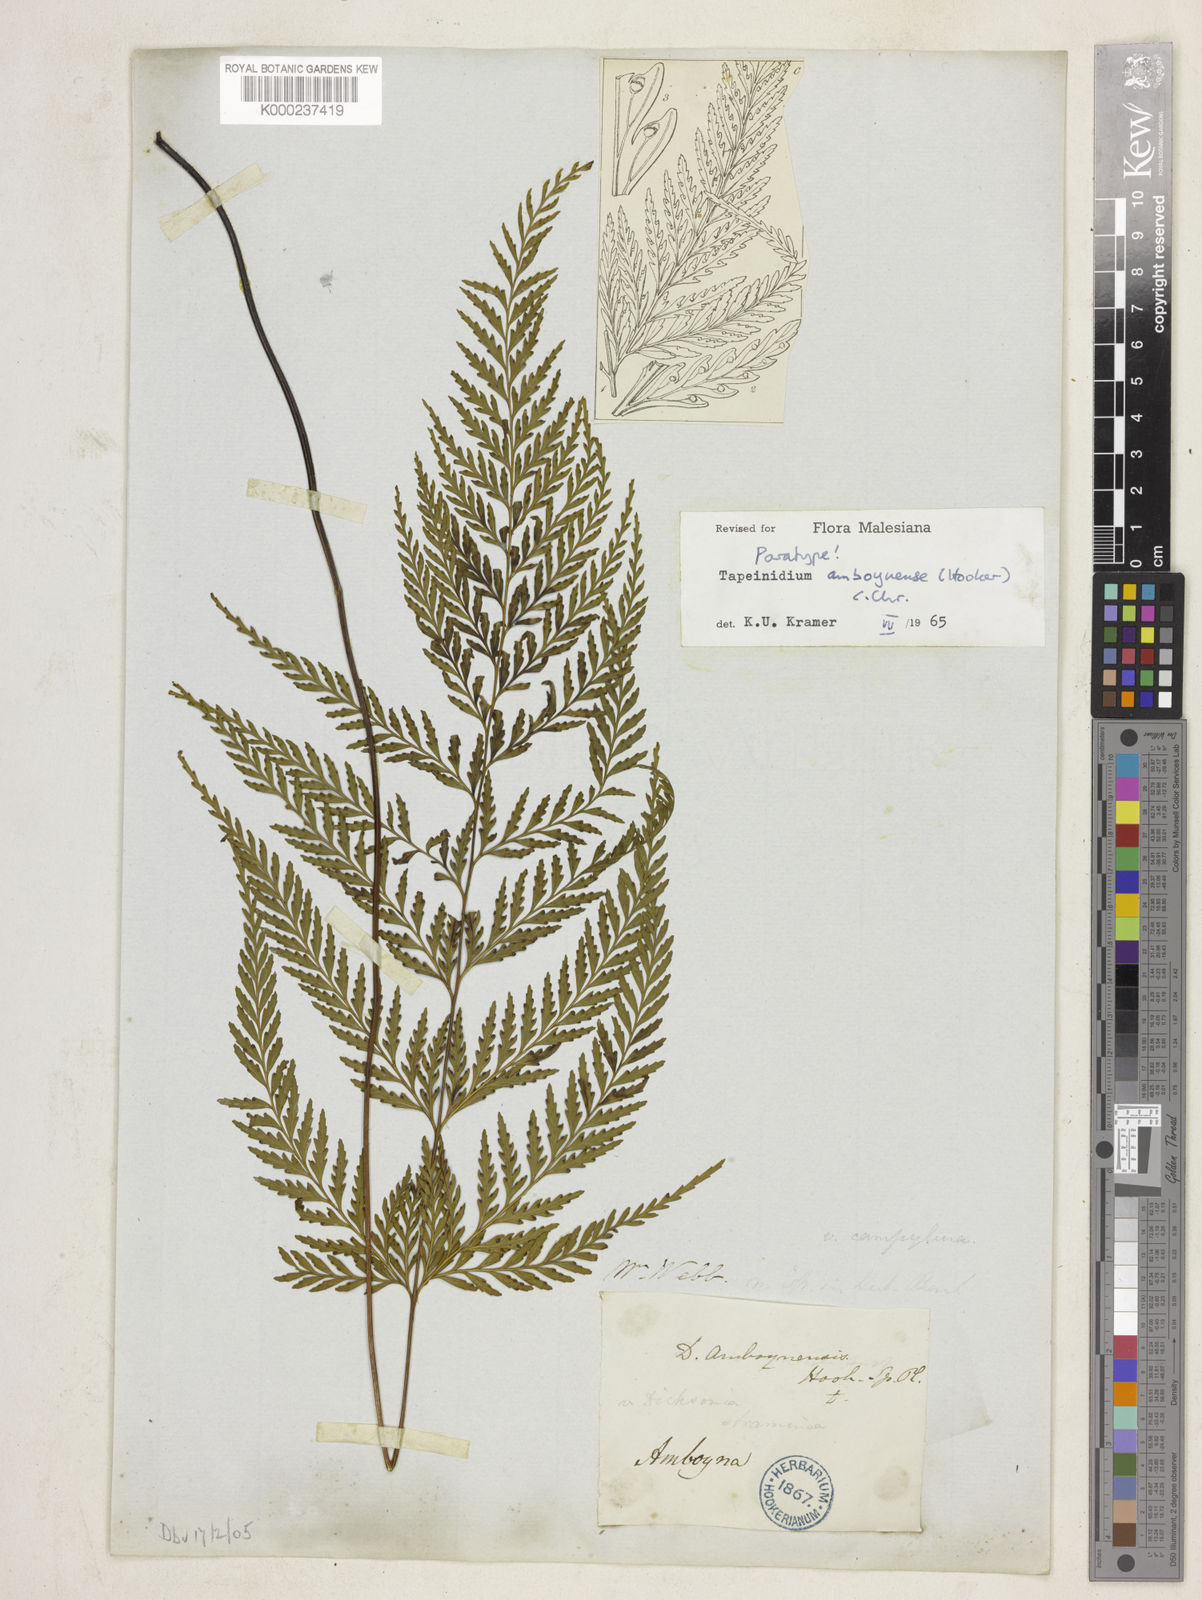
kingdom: Plantae
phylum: Tracheophyta
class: Polypodiopsida
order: Polypodiales
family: Lindsaeaceae
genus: Tapeinidium
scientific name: Tapeinidium moluccanum
